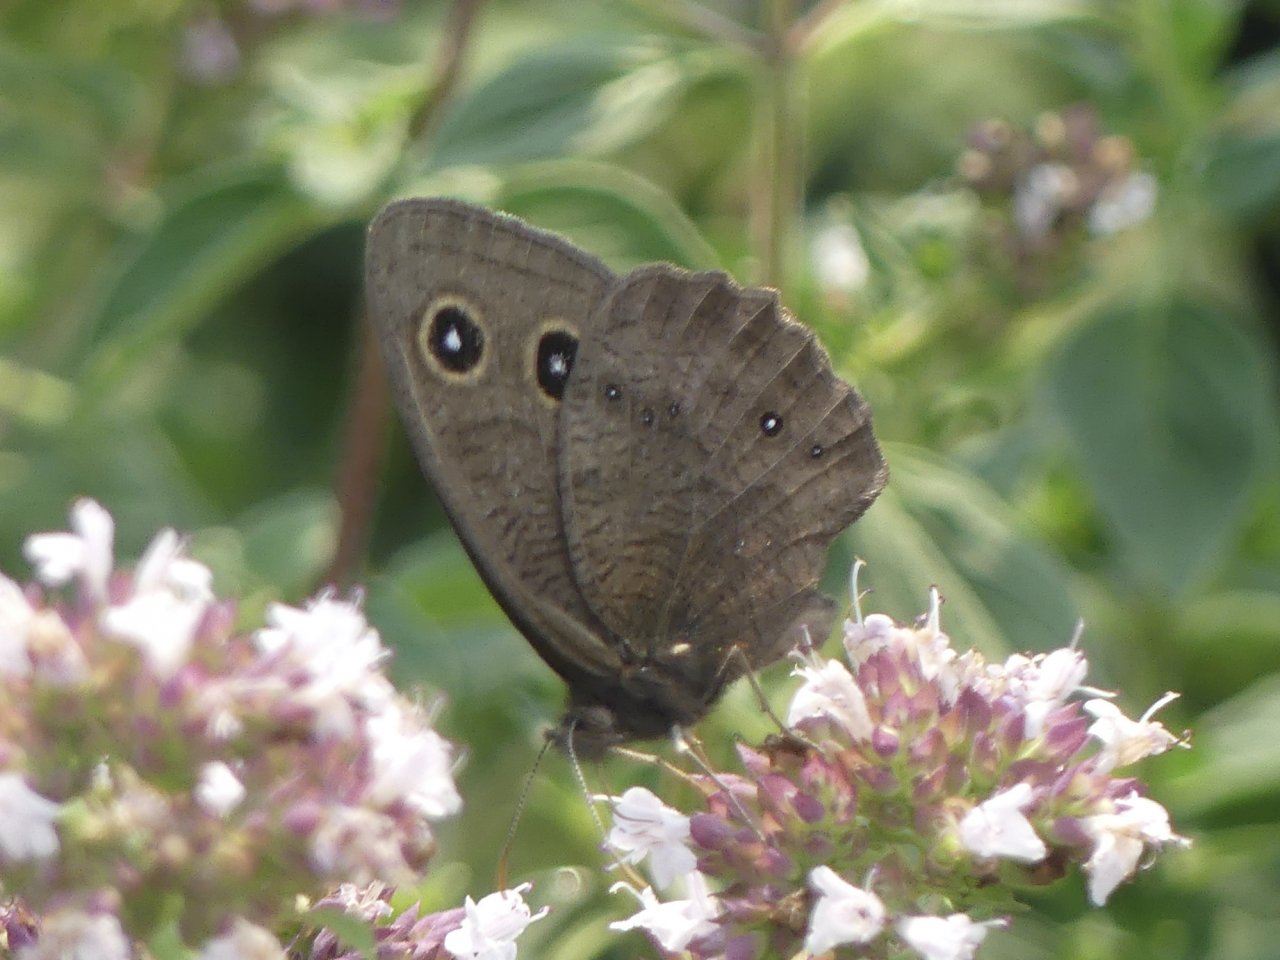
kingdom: Animalia
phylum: Arthropoda
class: Insecta
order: Lepidoptera
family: Nymphalidae
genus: Cercyonis
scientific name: Cercyonis pegala
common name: Common Wood-Nymph
